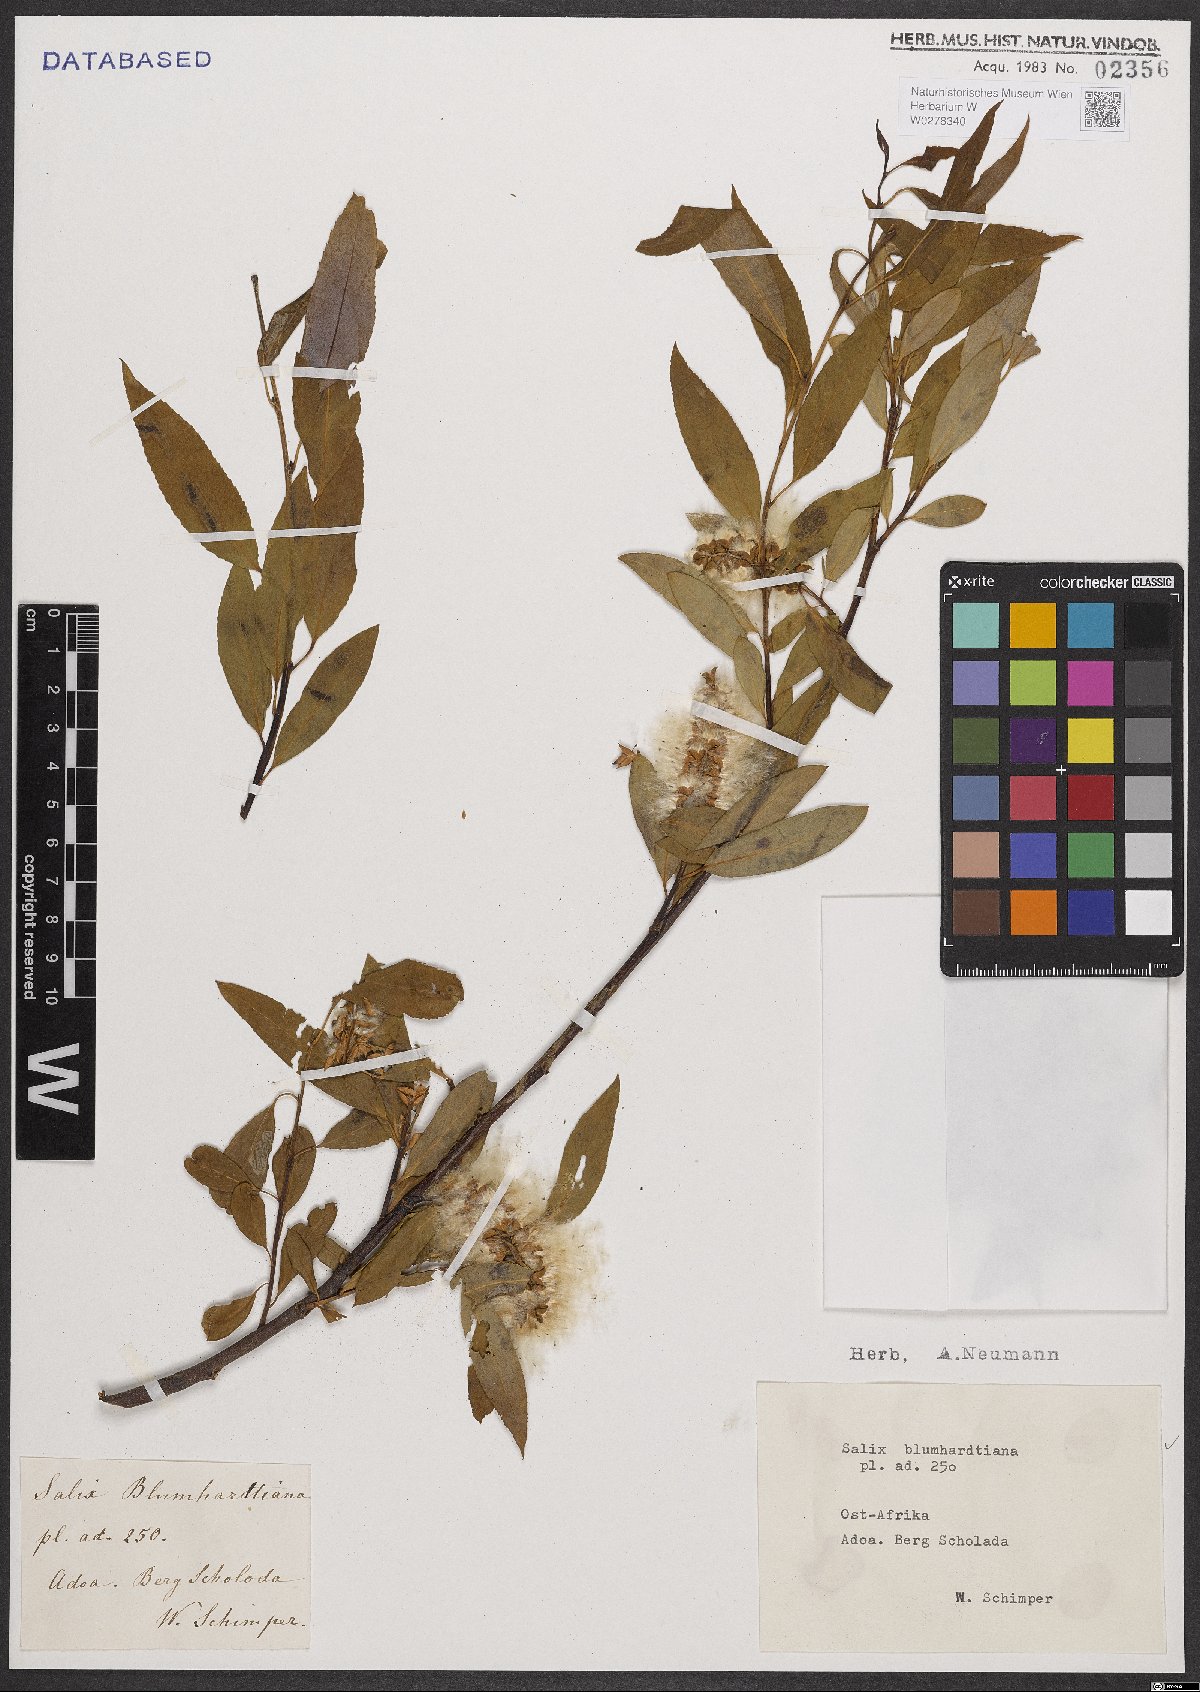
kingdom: Plantae
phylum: Tracheophyta
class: Magnoliopsida
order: Malpighiales
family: Salicaceae
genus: Salix
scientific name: Salix mucronata
